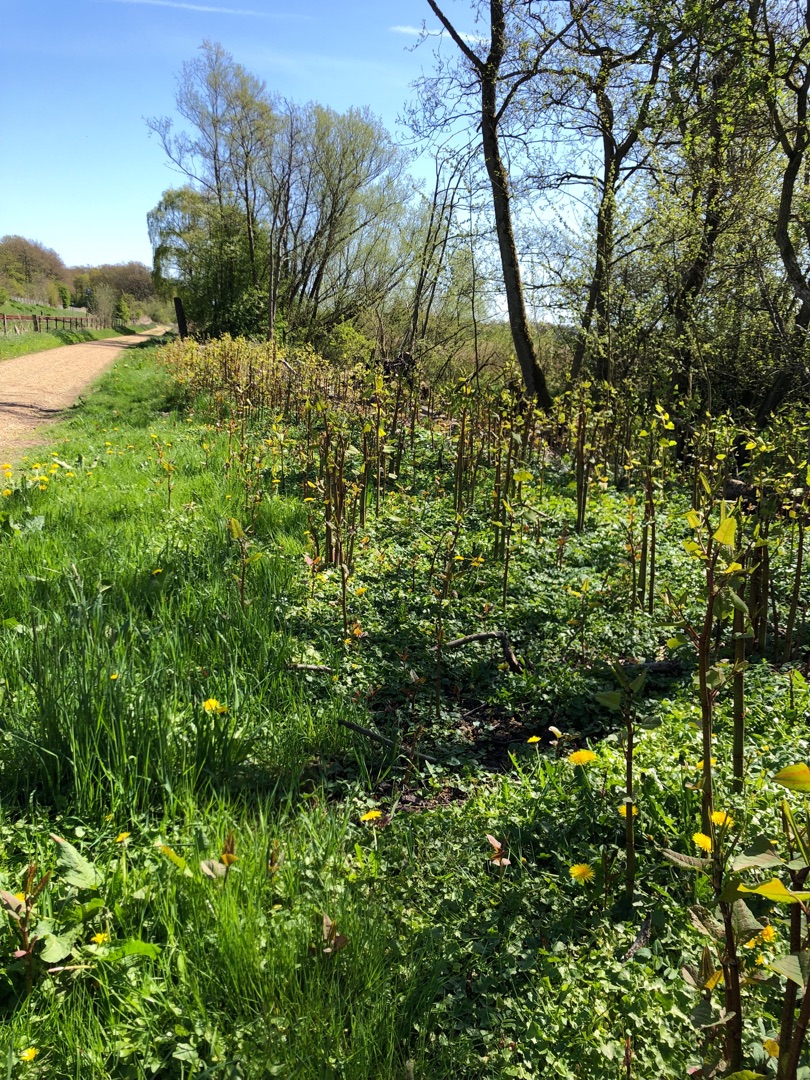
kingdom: Plantae
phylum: Tracheophyta
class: Magnoliopsida
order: Caryophyllales
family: Polygonaceae
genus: Reynoutria
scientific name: Reynoutria
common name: Pileurt (Reynoutria-slægten)
